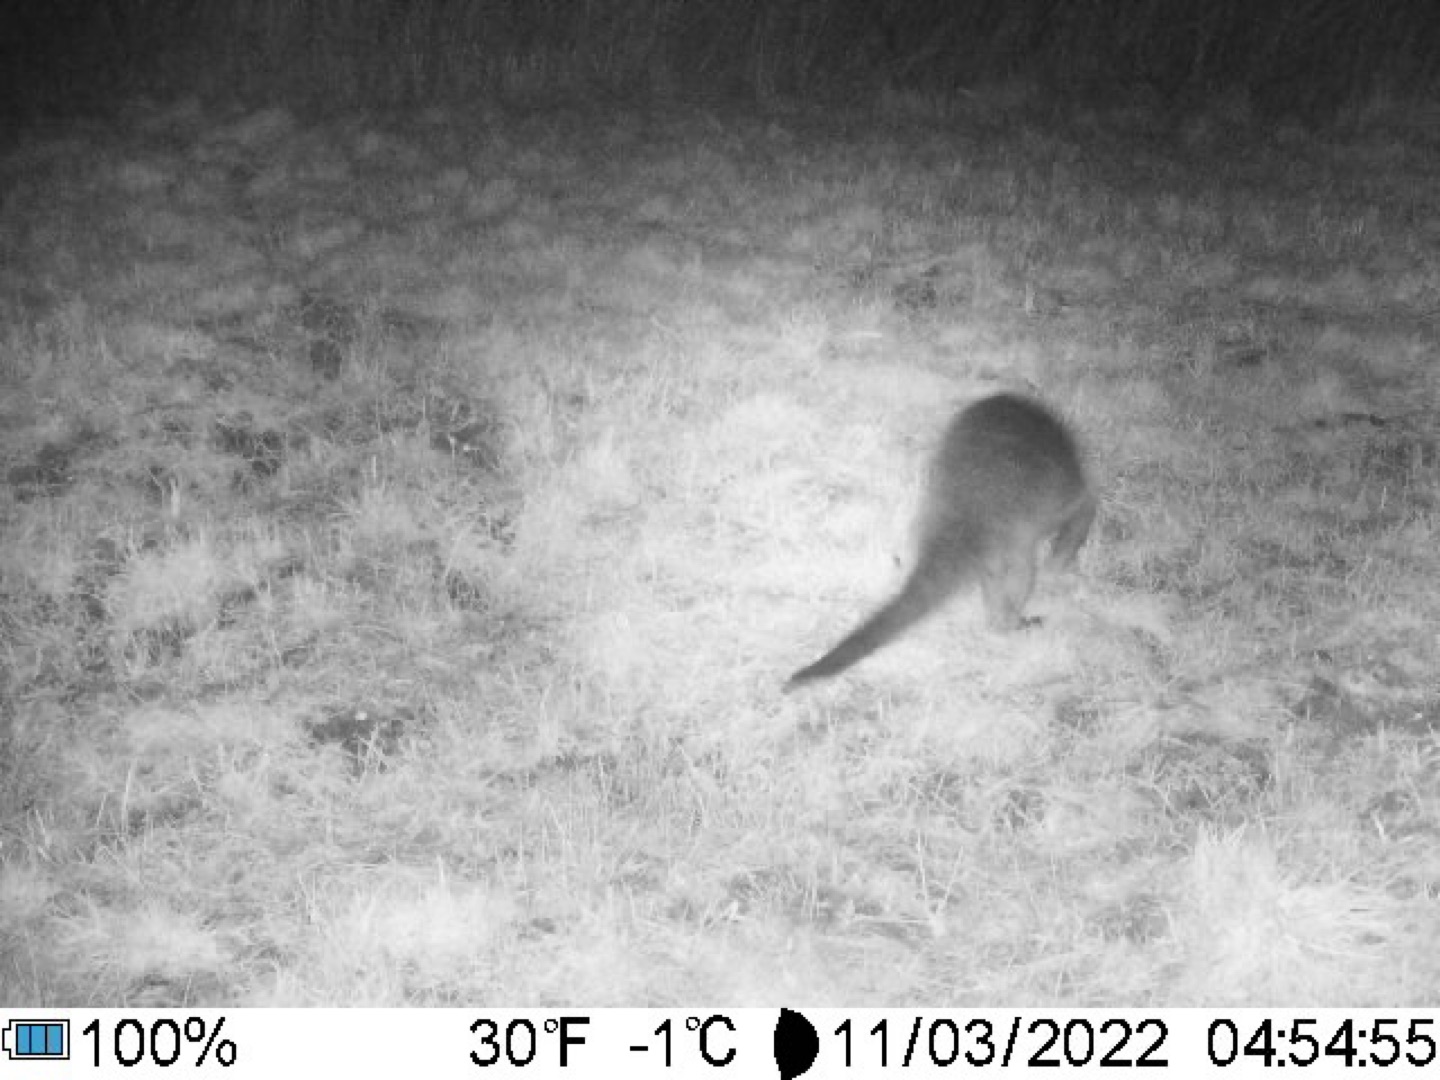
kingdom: Animalia
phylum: Chordata
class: Mammalia
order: Carnivora
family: Mustelidae
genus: Lutra
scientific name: Lutra lutra
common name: Odder
